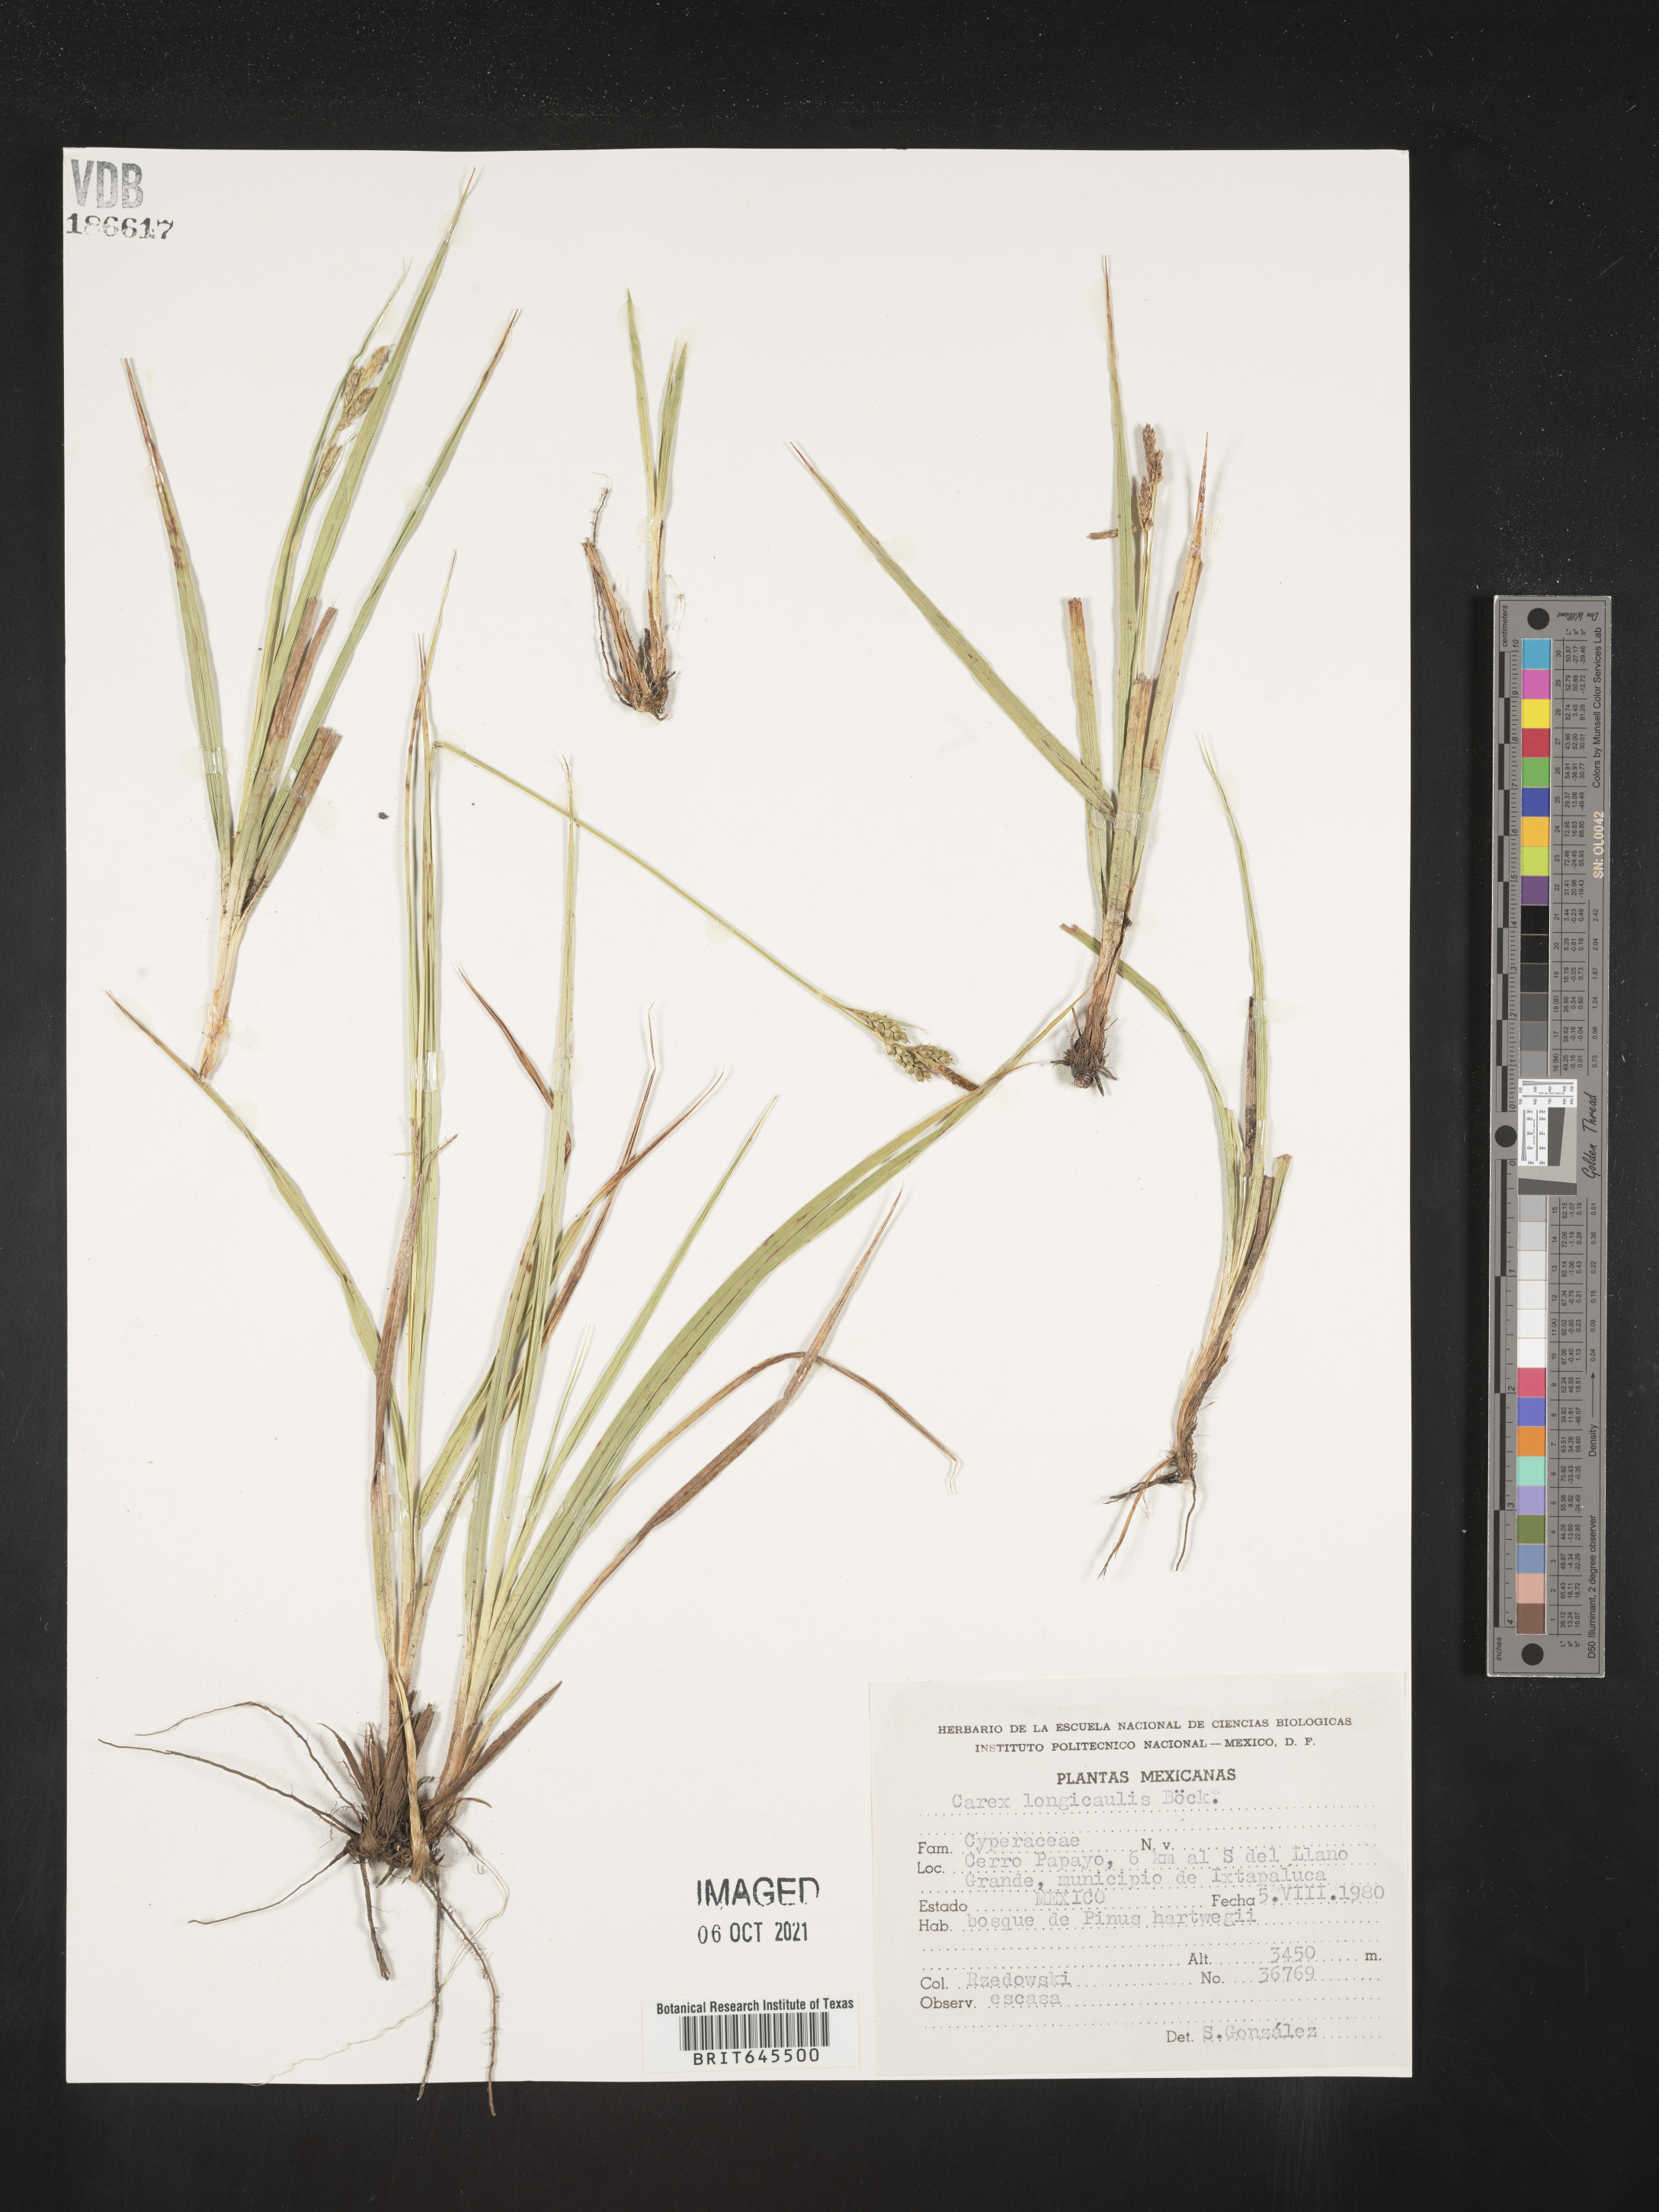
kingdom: Plantae
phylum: Tracheophyta
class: Liliopsida
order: Poales
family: Cyperaceae
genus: Carex
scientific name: Carex
